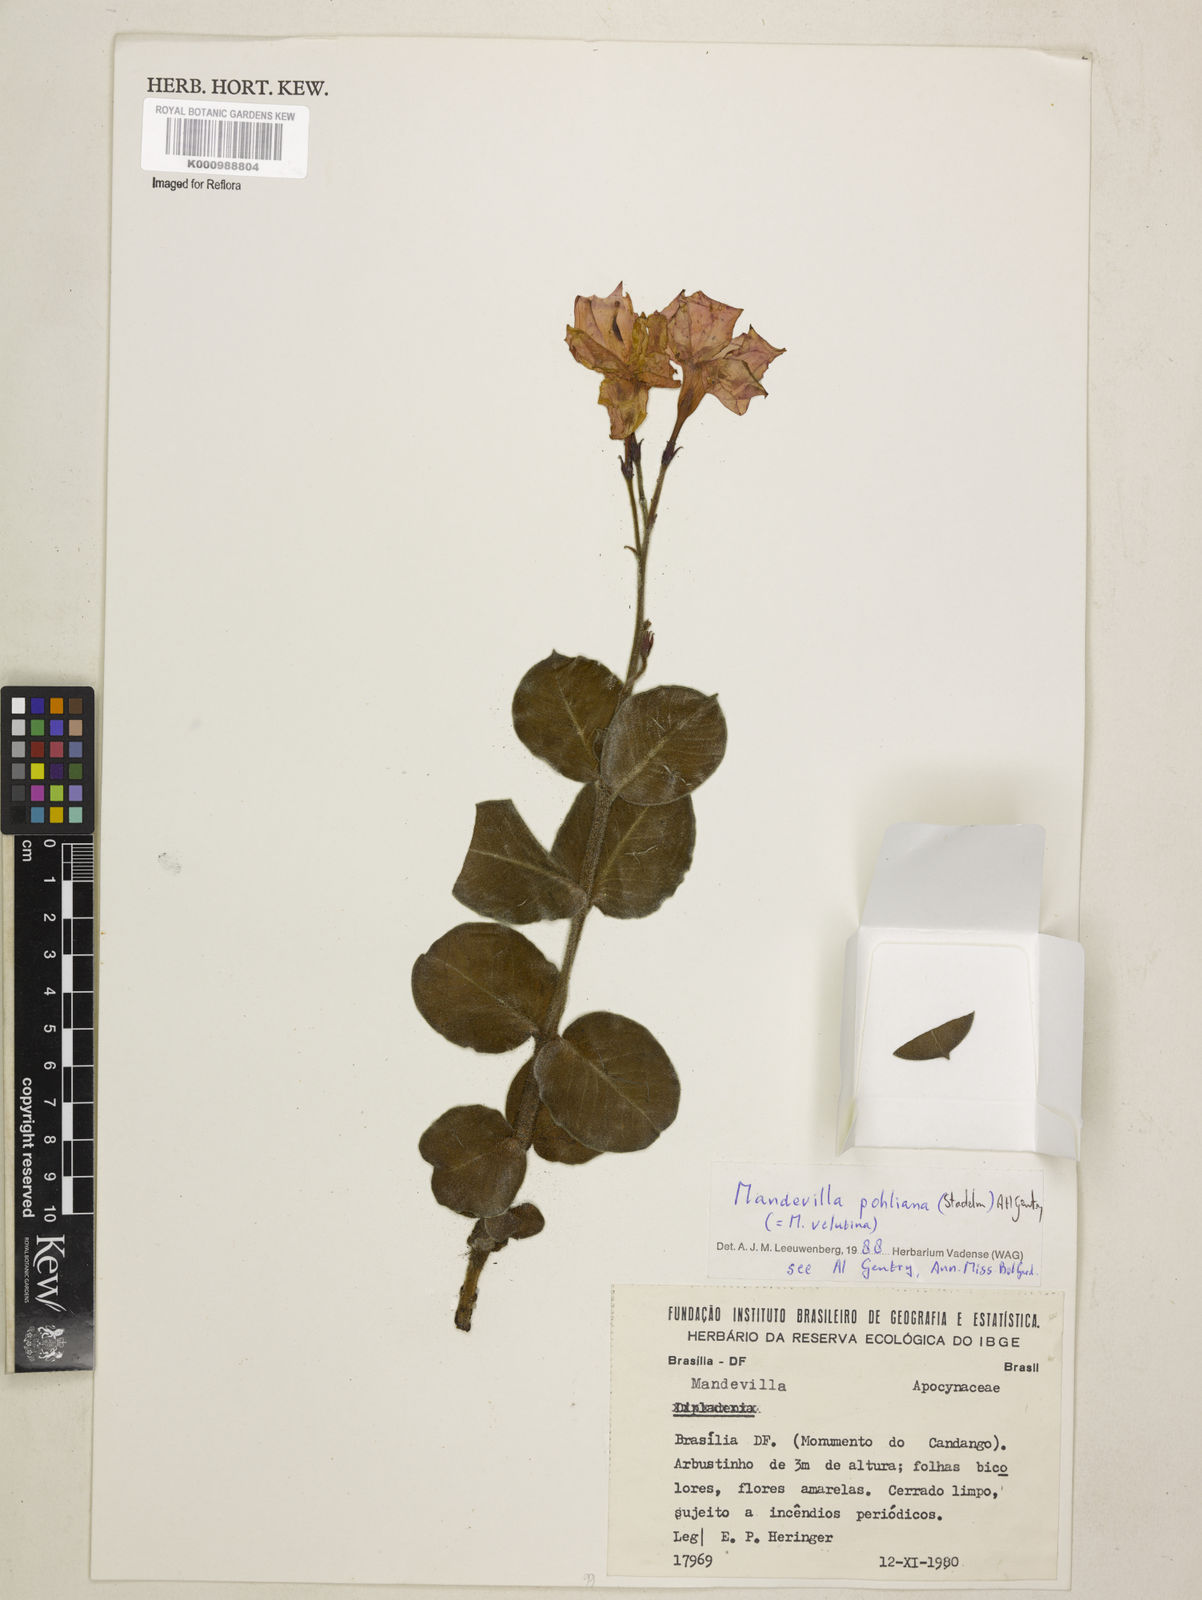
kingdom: Plantae
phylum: Tracheophyta
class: Magnoliopsida
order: Gentianales
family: Apocynaceae
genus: Mandevilla
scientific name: Mandevilla pohliana
